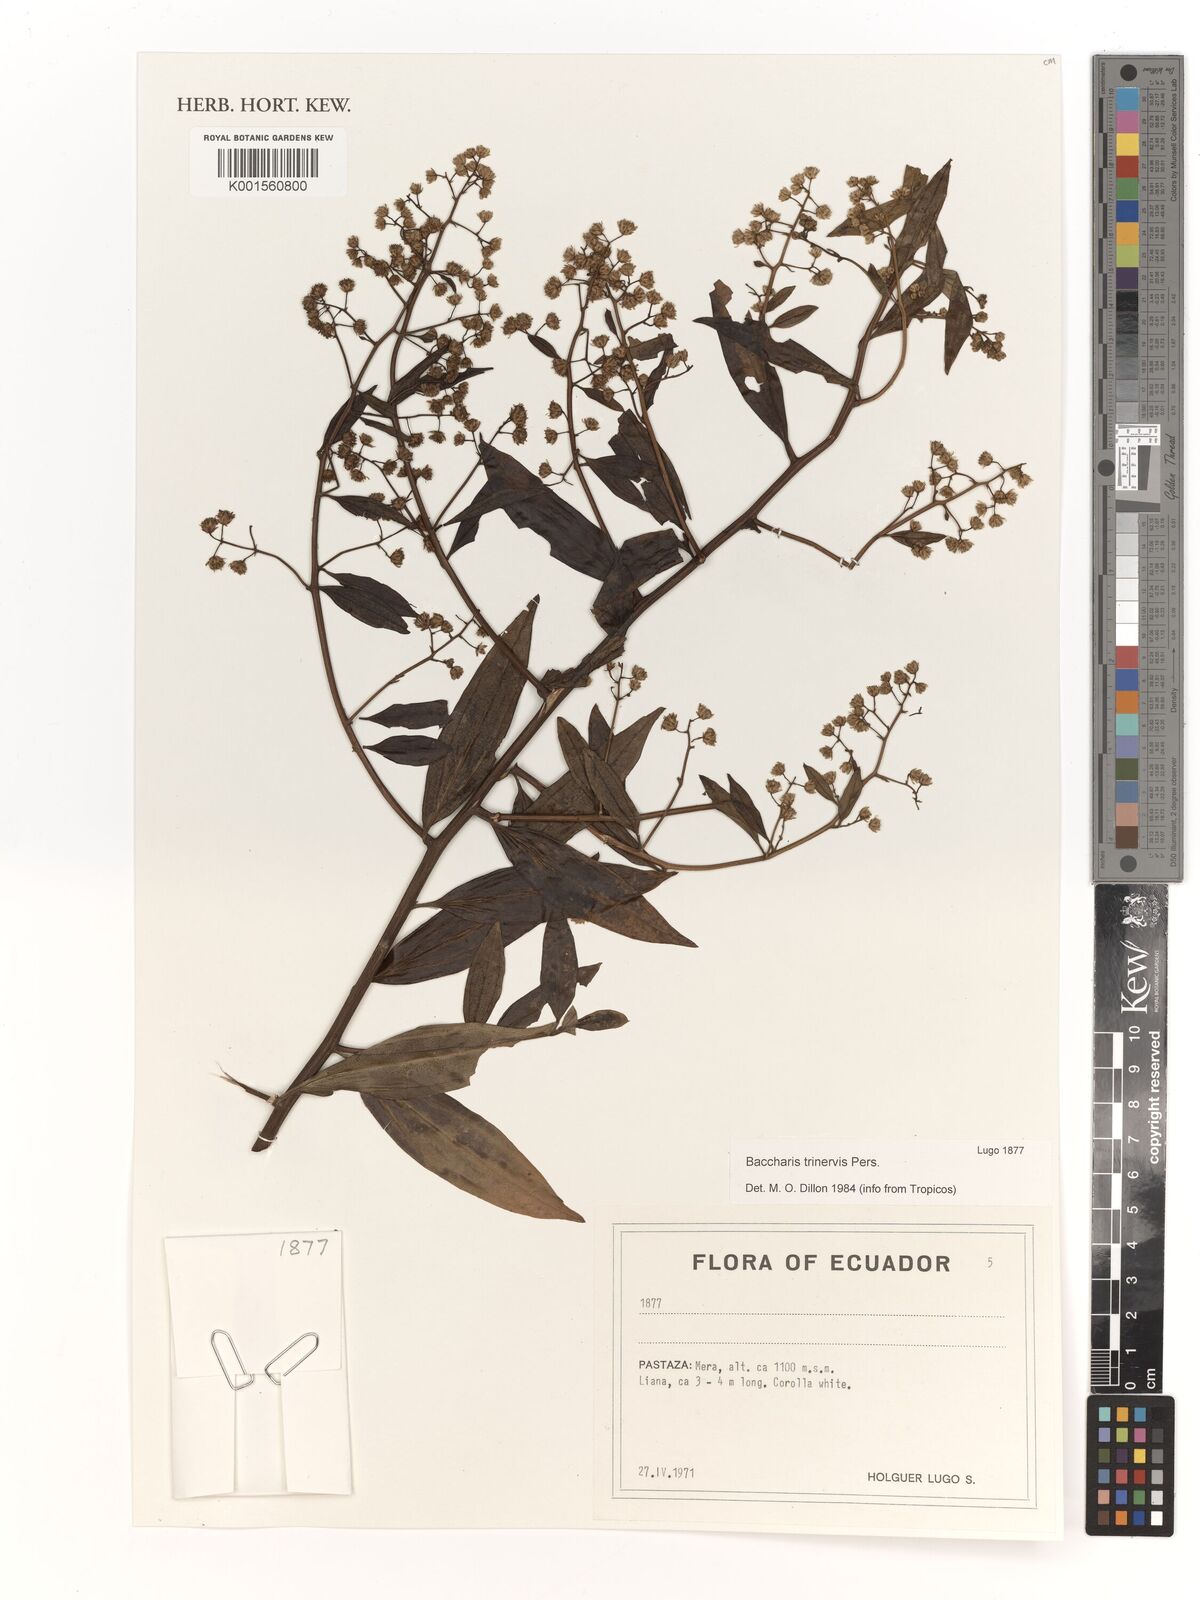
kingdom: Plantae
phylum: Tracheophyta
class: Magnoliopsida
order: Asterales
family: Asteraceae
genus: Baccharis
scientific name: Baccharis trinervis
